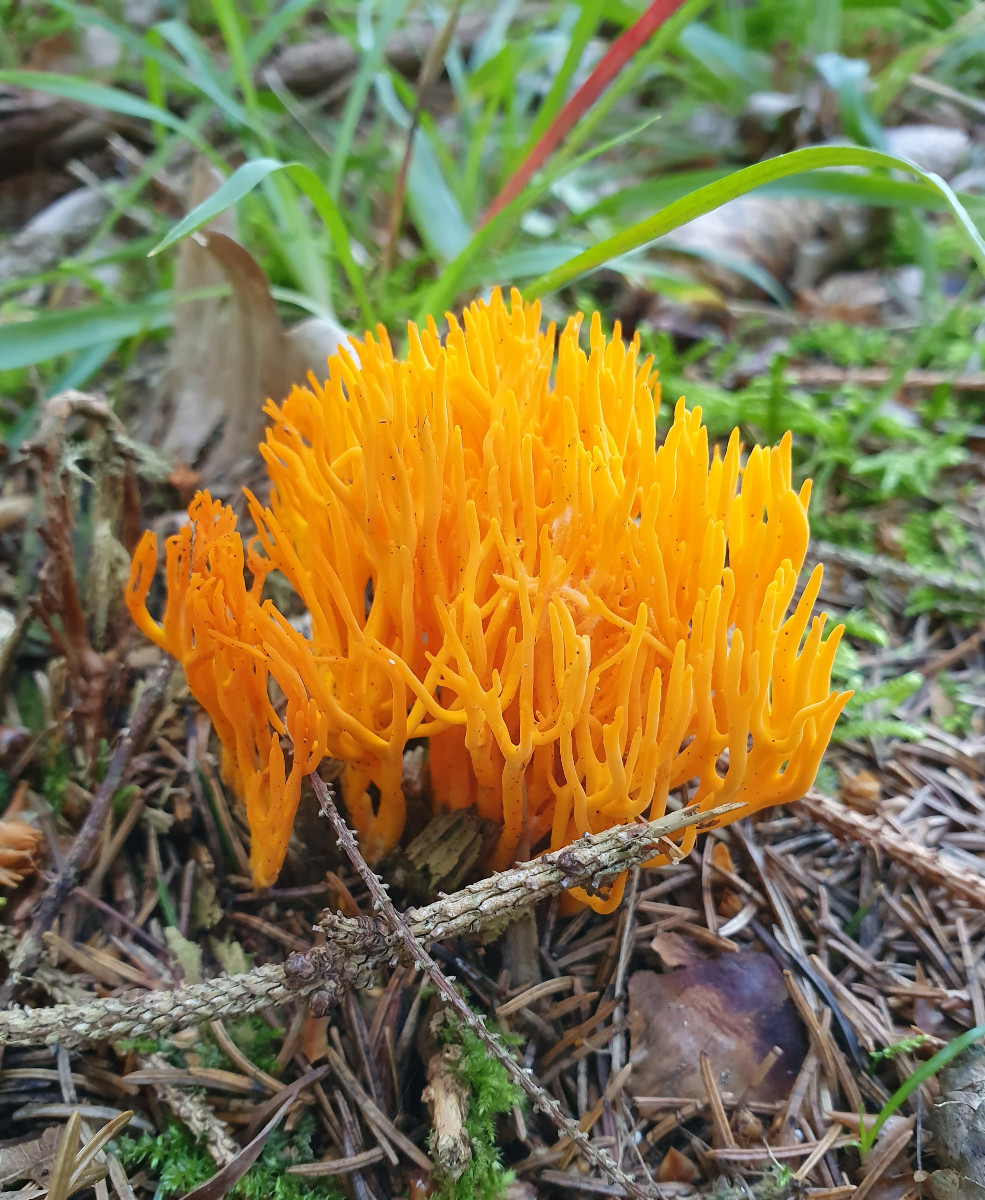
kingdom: Fungi
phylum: Basidiomycota
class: Dacrymycetes
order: Dacrymycetales
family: Dacrymycetaceae
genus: Calocera
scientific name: Calocera viscosa
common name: almindelig guldgaffel
